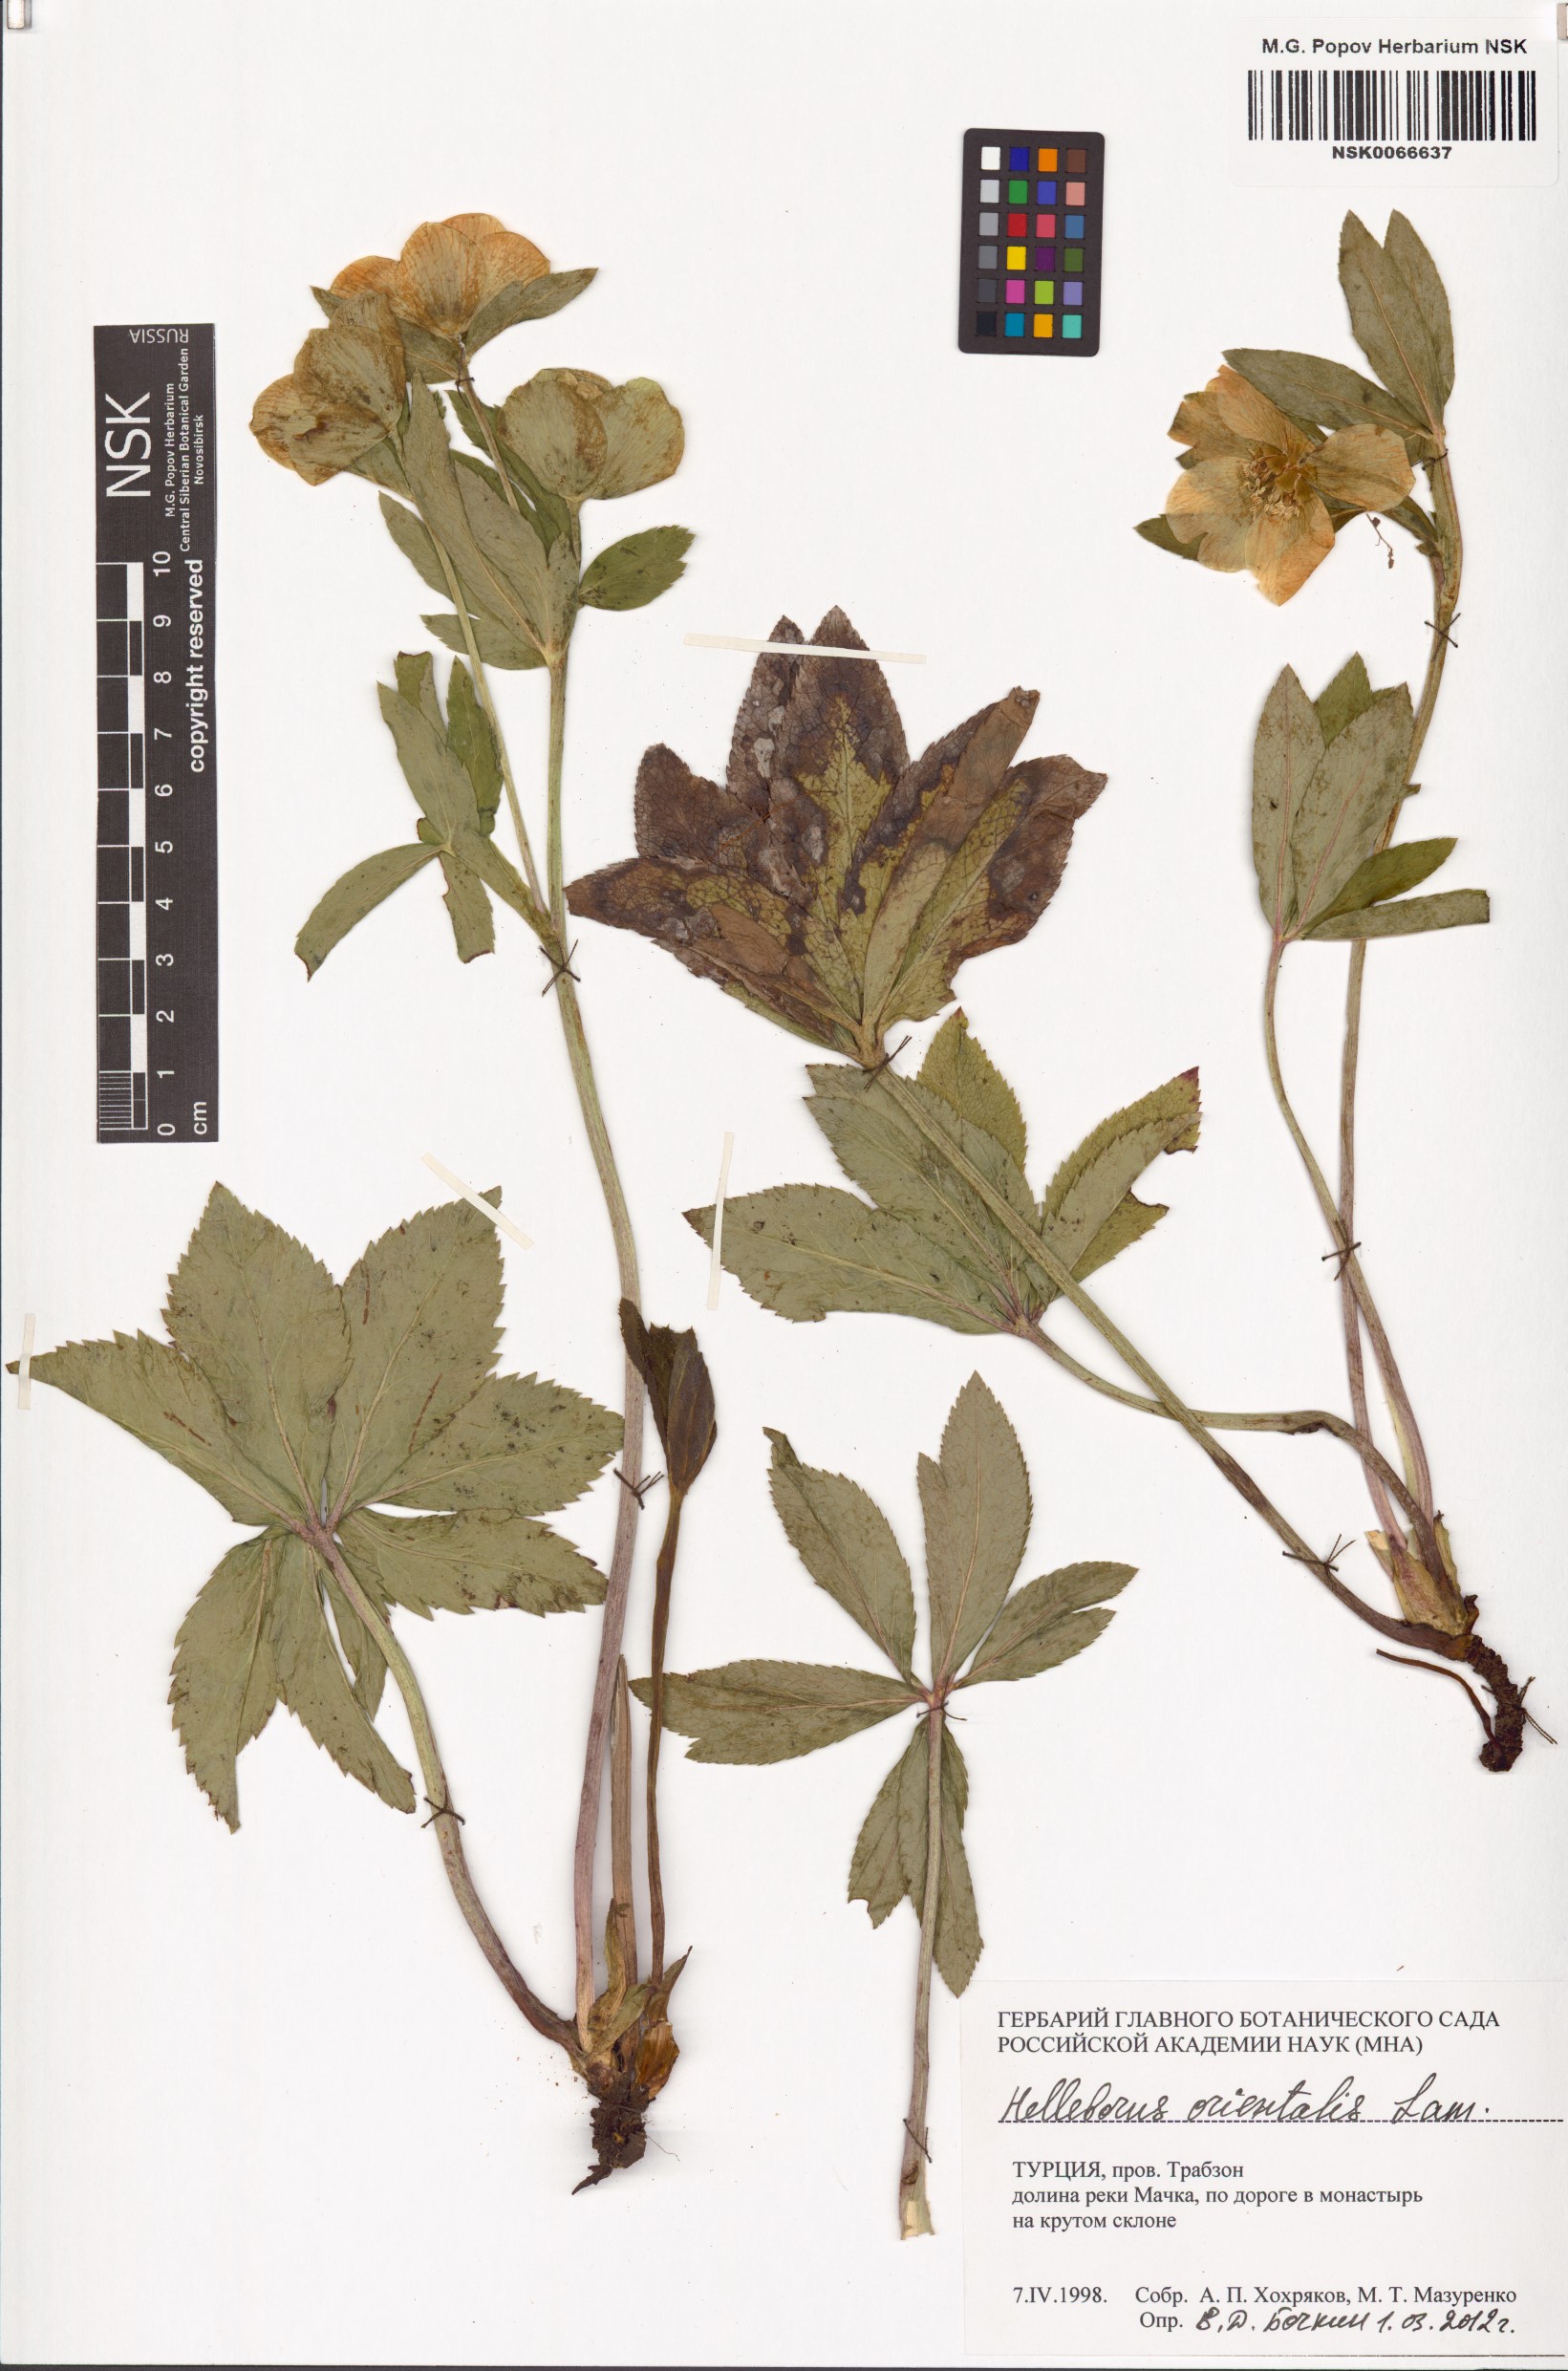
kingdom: Plantae
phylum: Tracheophyta
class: Magnoliopsida
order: Ranunculales
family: Ranunculaceae
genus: Helleborus
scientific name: Helleborus orientalis
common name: Lenten-rose
